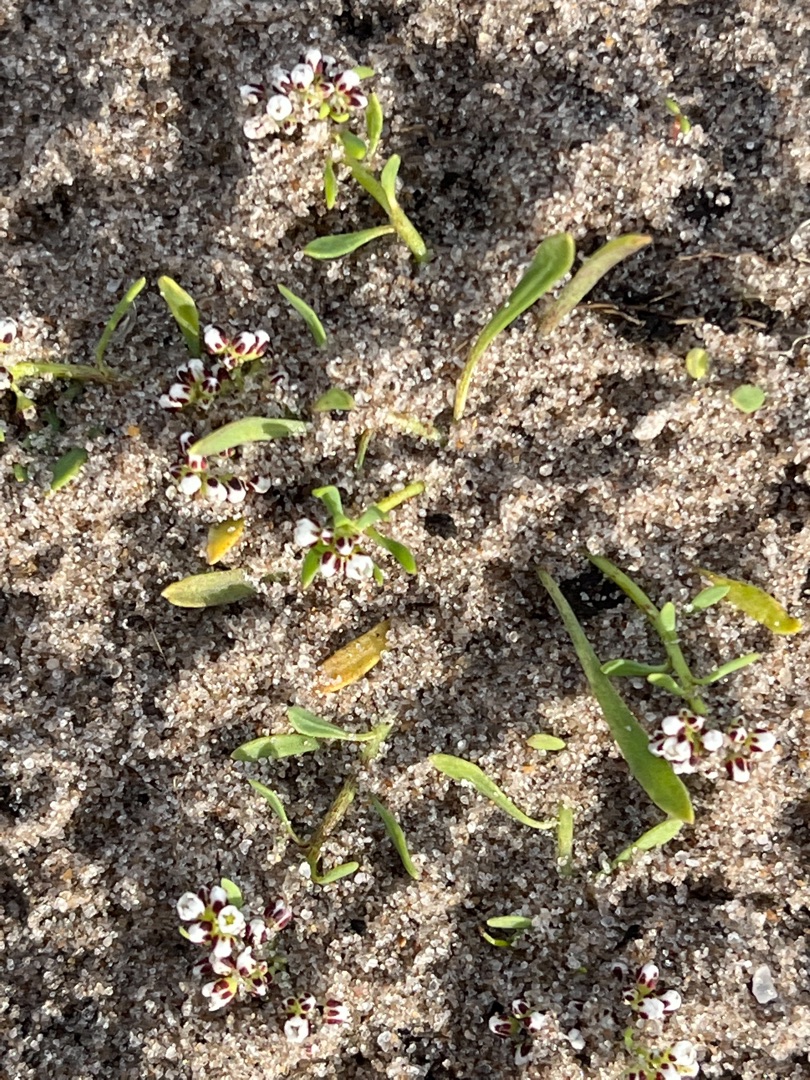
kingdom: Plantae
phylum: Tracheophyta
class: Magnoliopsida
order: Caryophyllales
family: Caryophyllaceae
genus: Corrigiola
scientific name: Corrigiola litoralis
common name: Skorem
